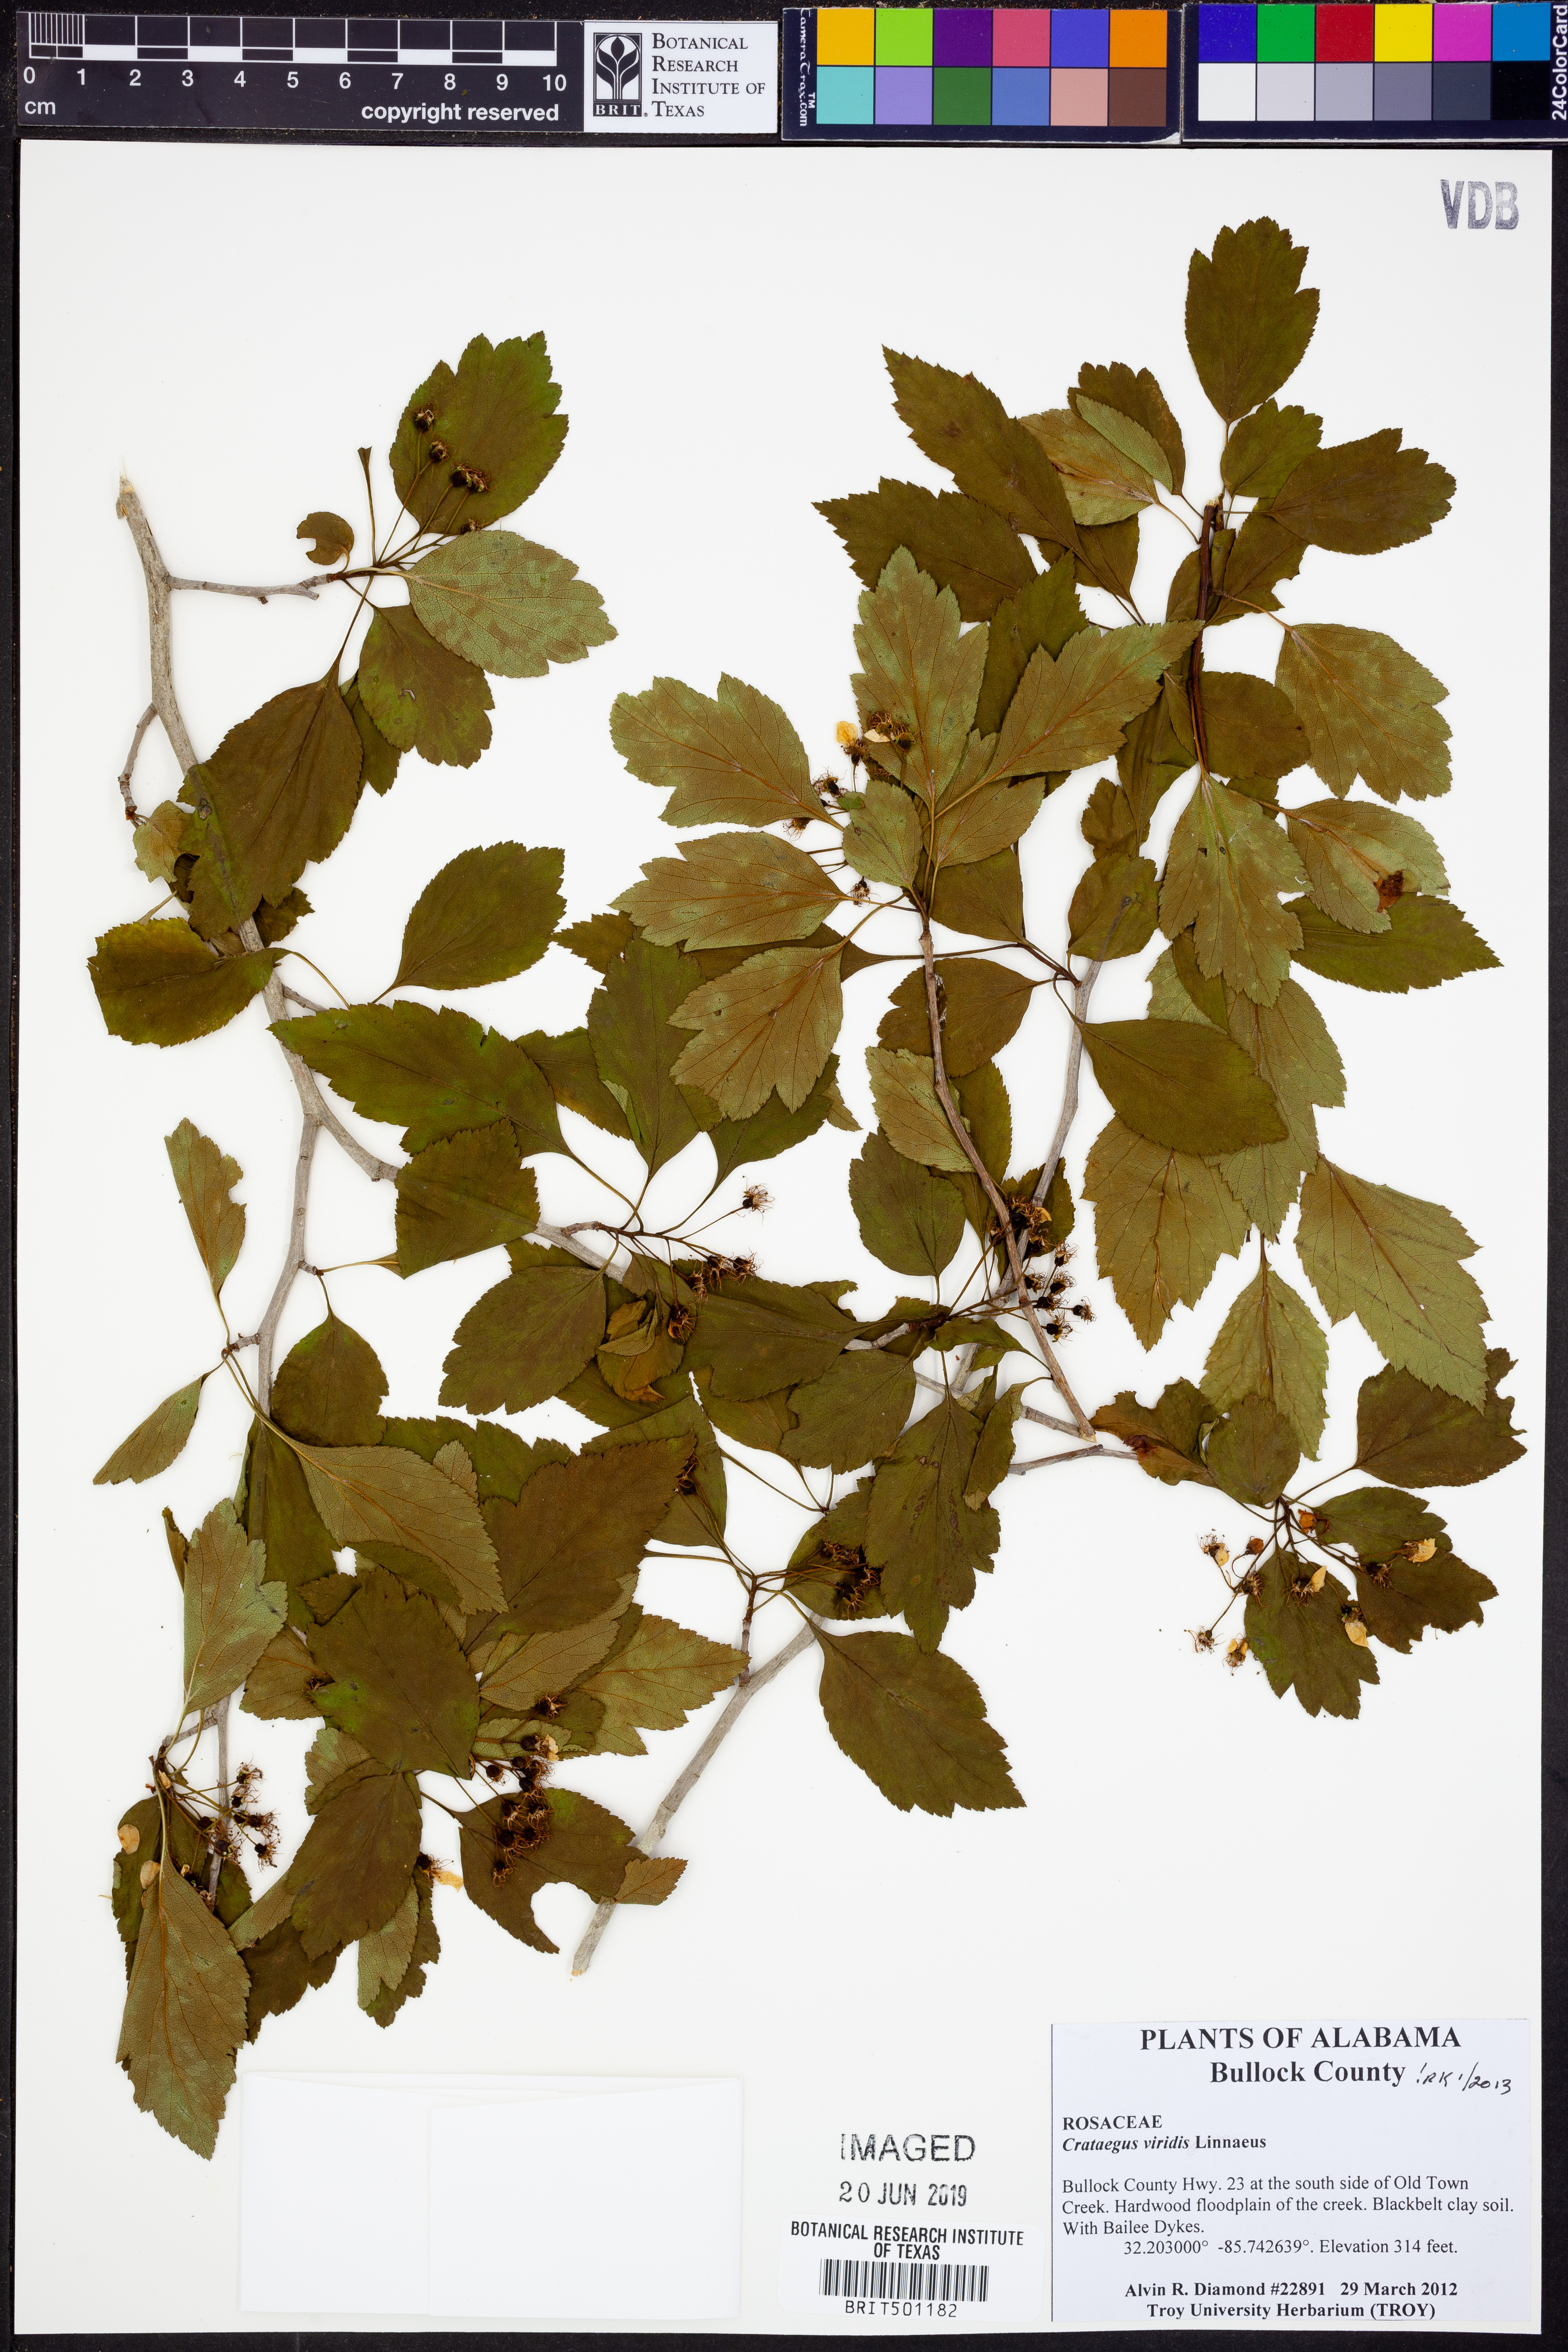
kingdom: Plantae
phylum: Tracheophyta
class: Magnoliopsida
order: Rosales
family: Rosaceae
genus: Crataegus
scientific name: Crataegus viridis
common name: Southernthorn
